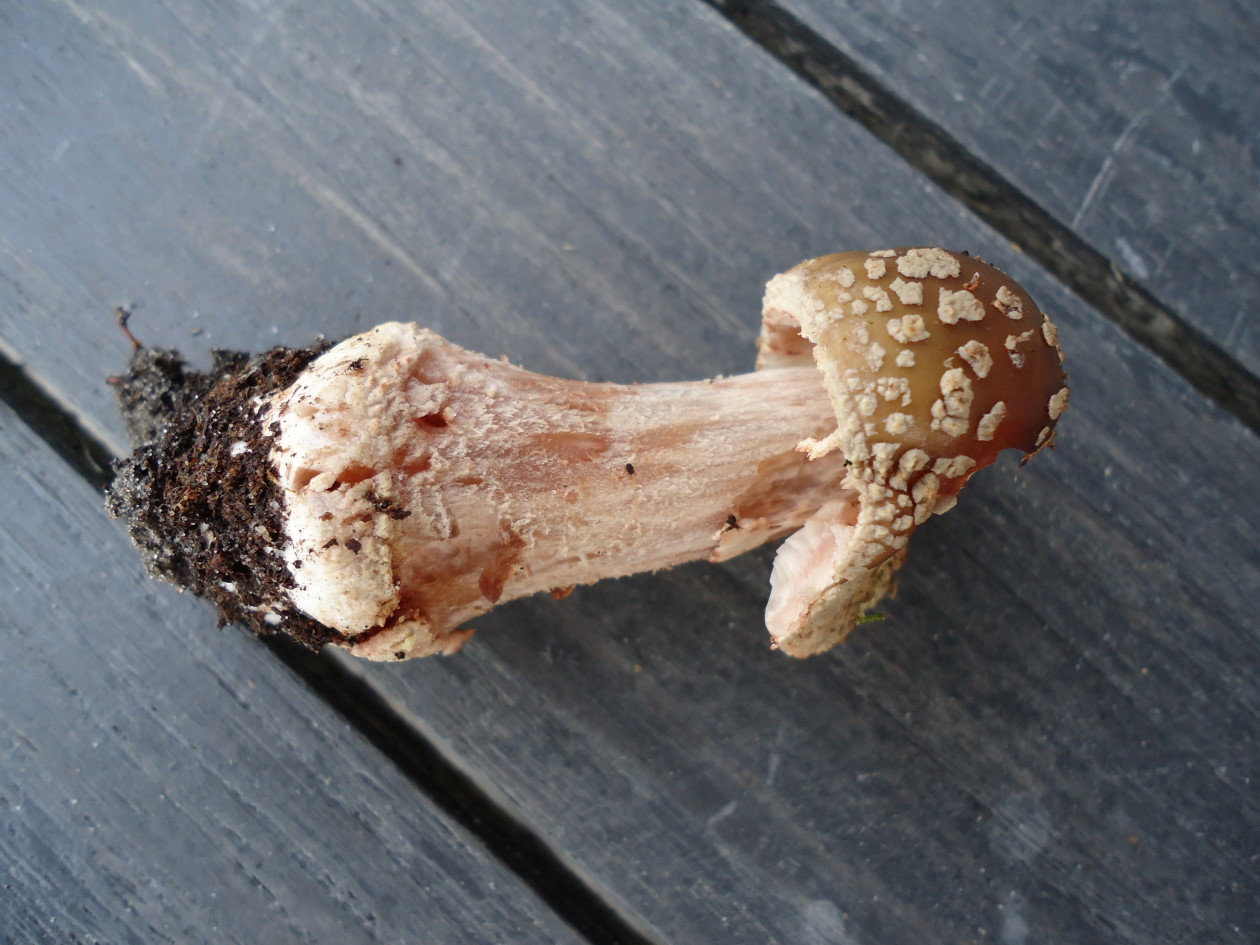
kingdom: Fungi
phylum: Basidiomycota
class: Agaricomycetes
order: Agaricales
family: Amanitaceae
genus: Amanita
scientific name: Amanita rubescens
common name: rødmende fluesvamp
